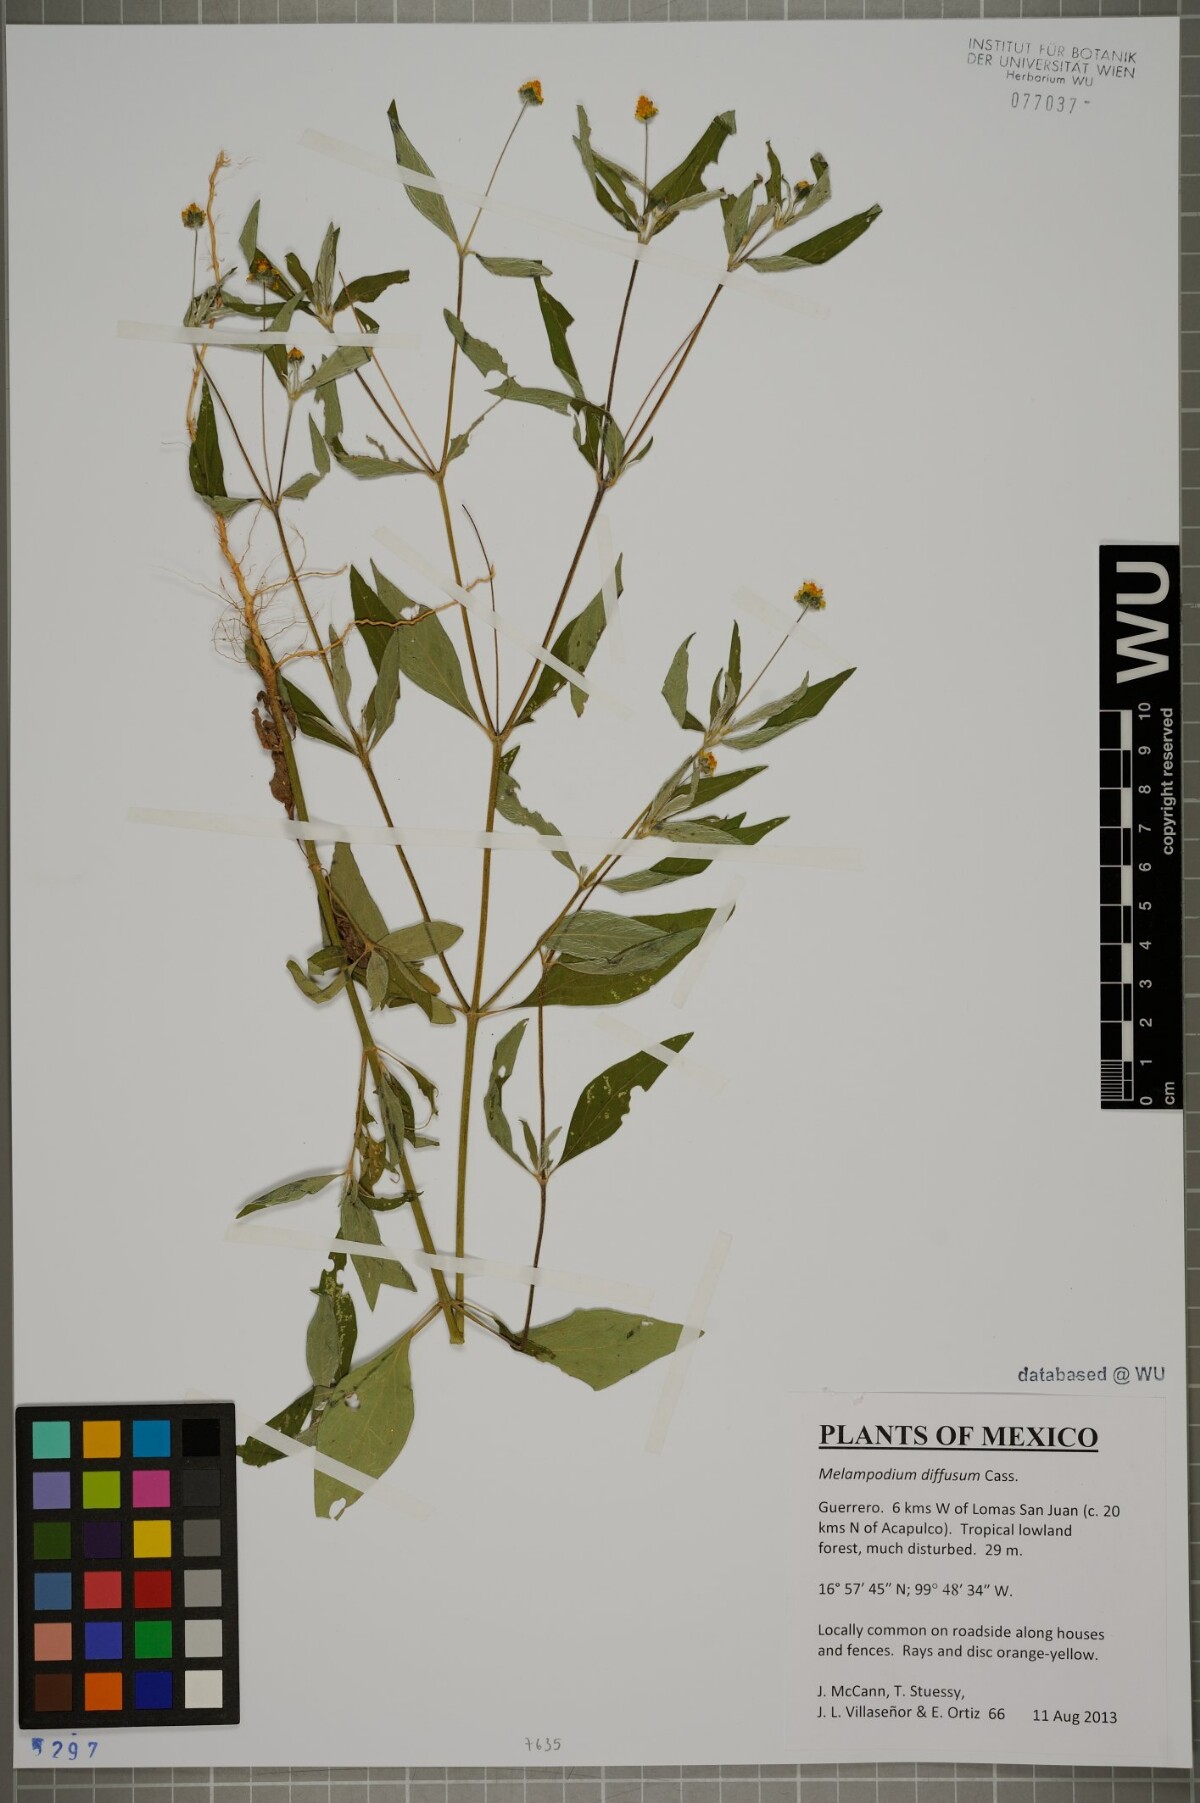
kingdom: Plantae
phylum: Tracheophyta
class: Magnoliopsida
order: Asterales
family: Asteraceae
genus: Melampodium
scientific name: Melampodium diffusum
